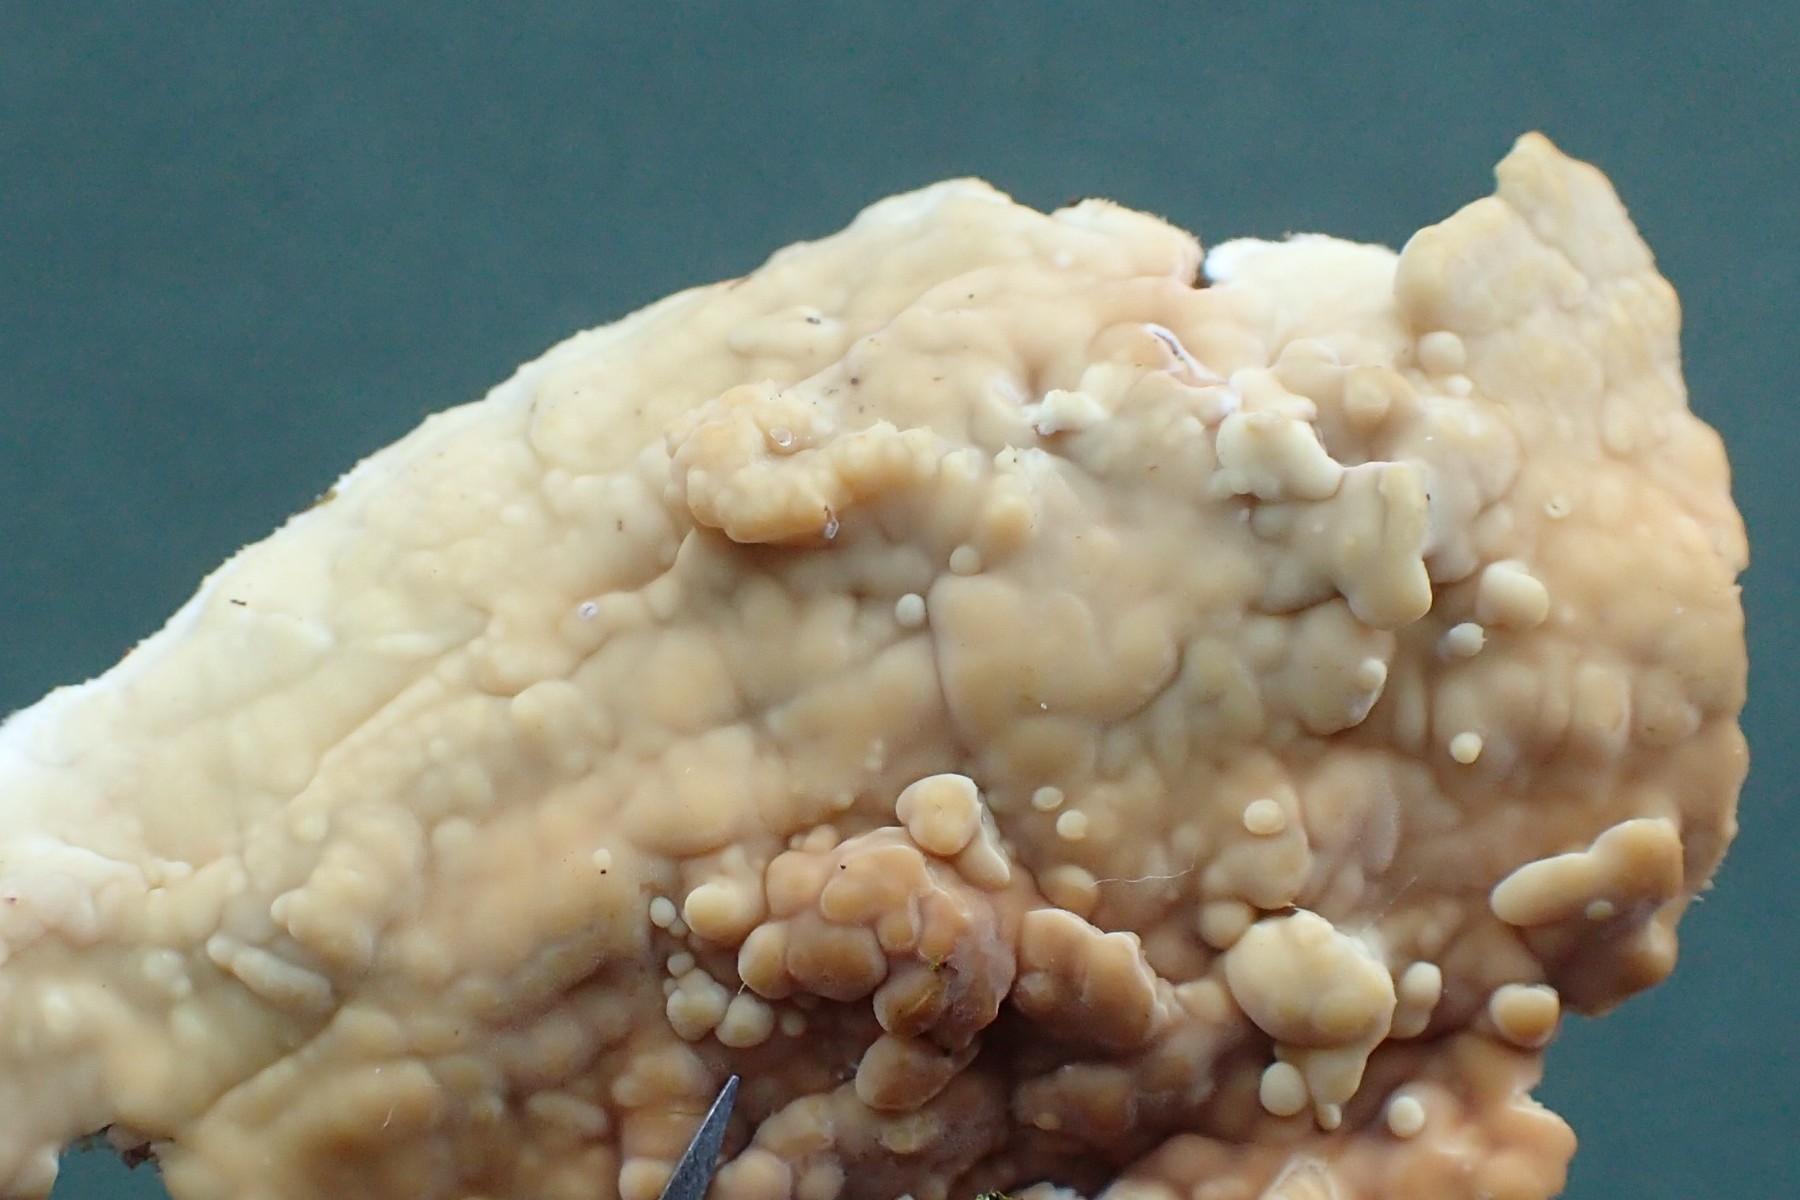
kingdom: Fungi
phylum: Basidiomycota
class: Agaricomycetes
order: Polyporales
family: Dacryobolaceae
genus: Dacryobolus
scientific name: Dacryobolus karstenii
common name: glat vulkanskorpe
